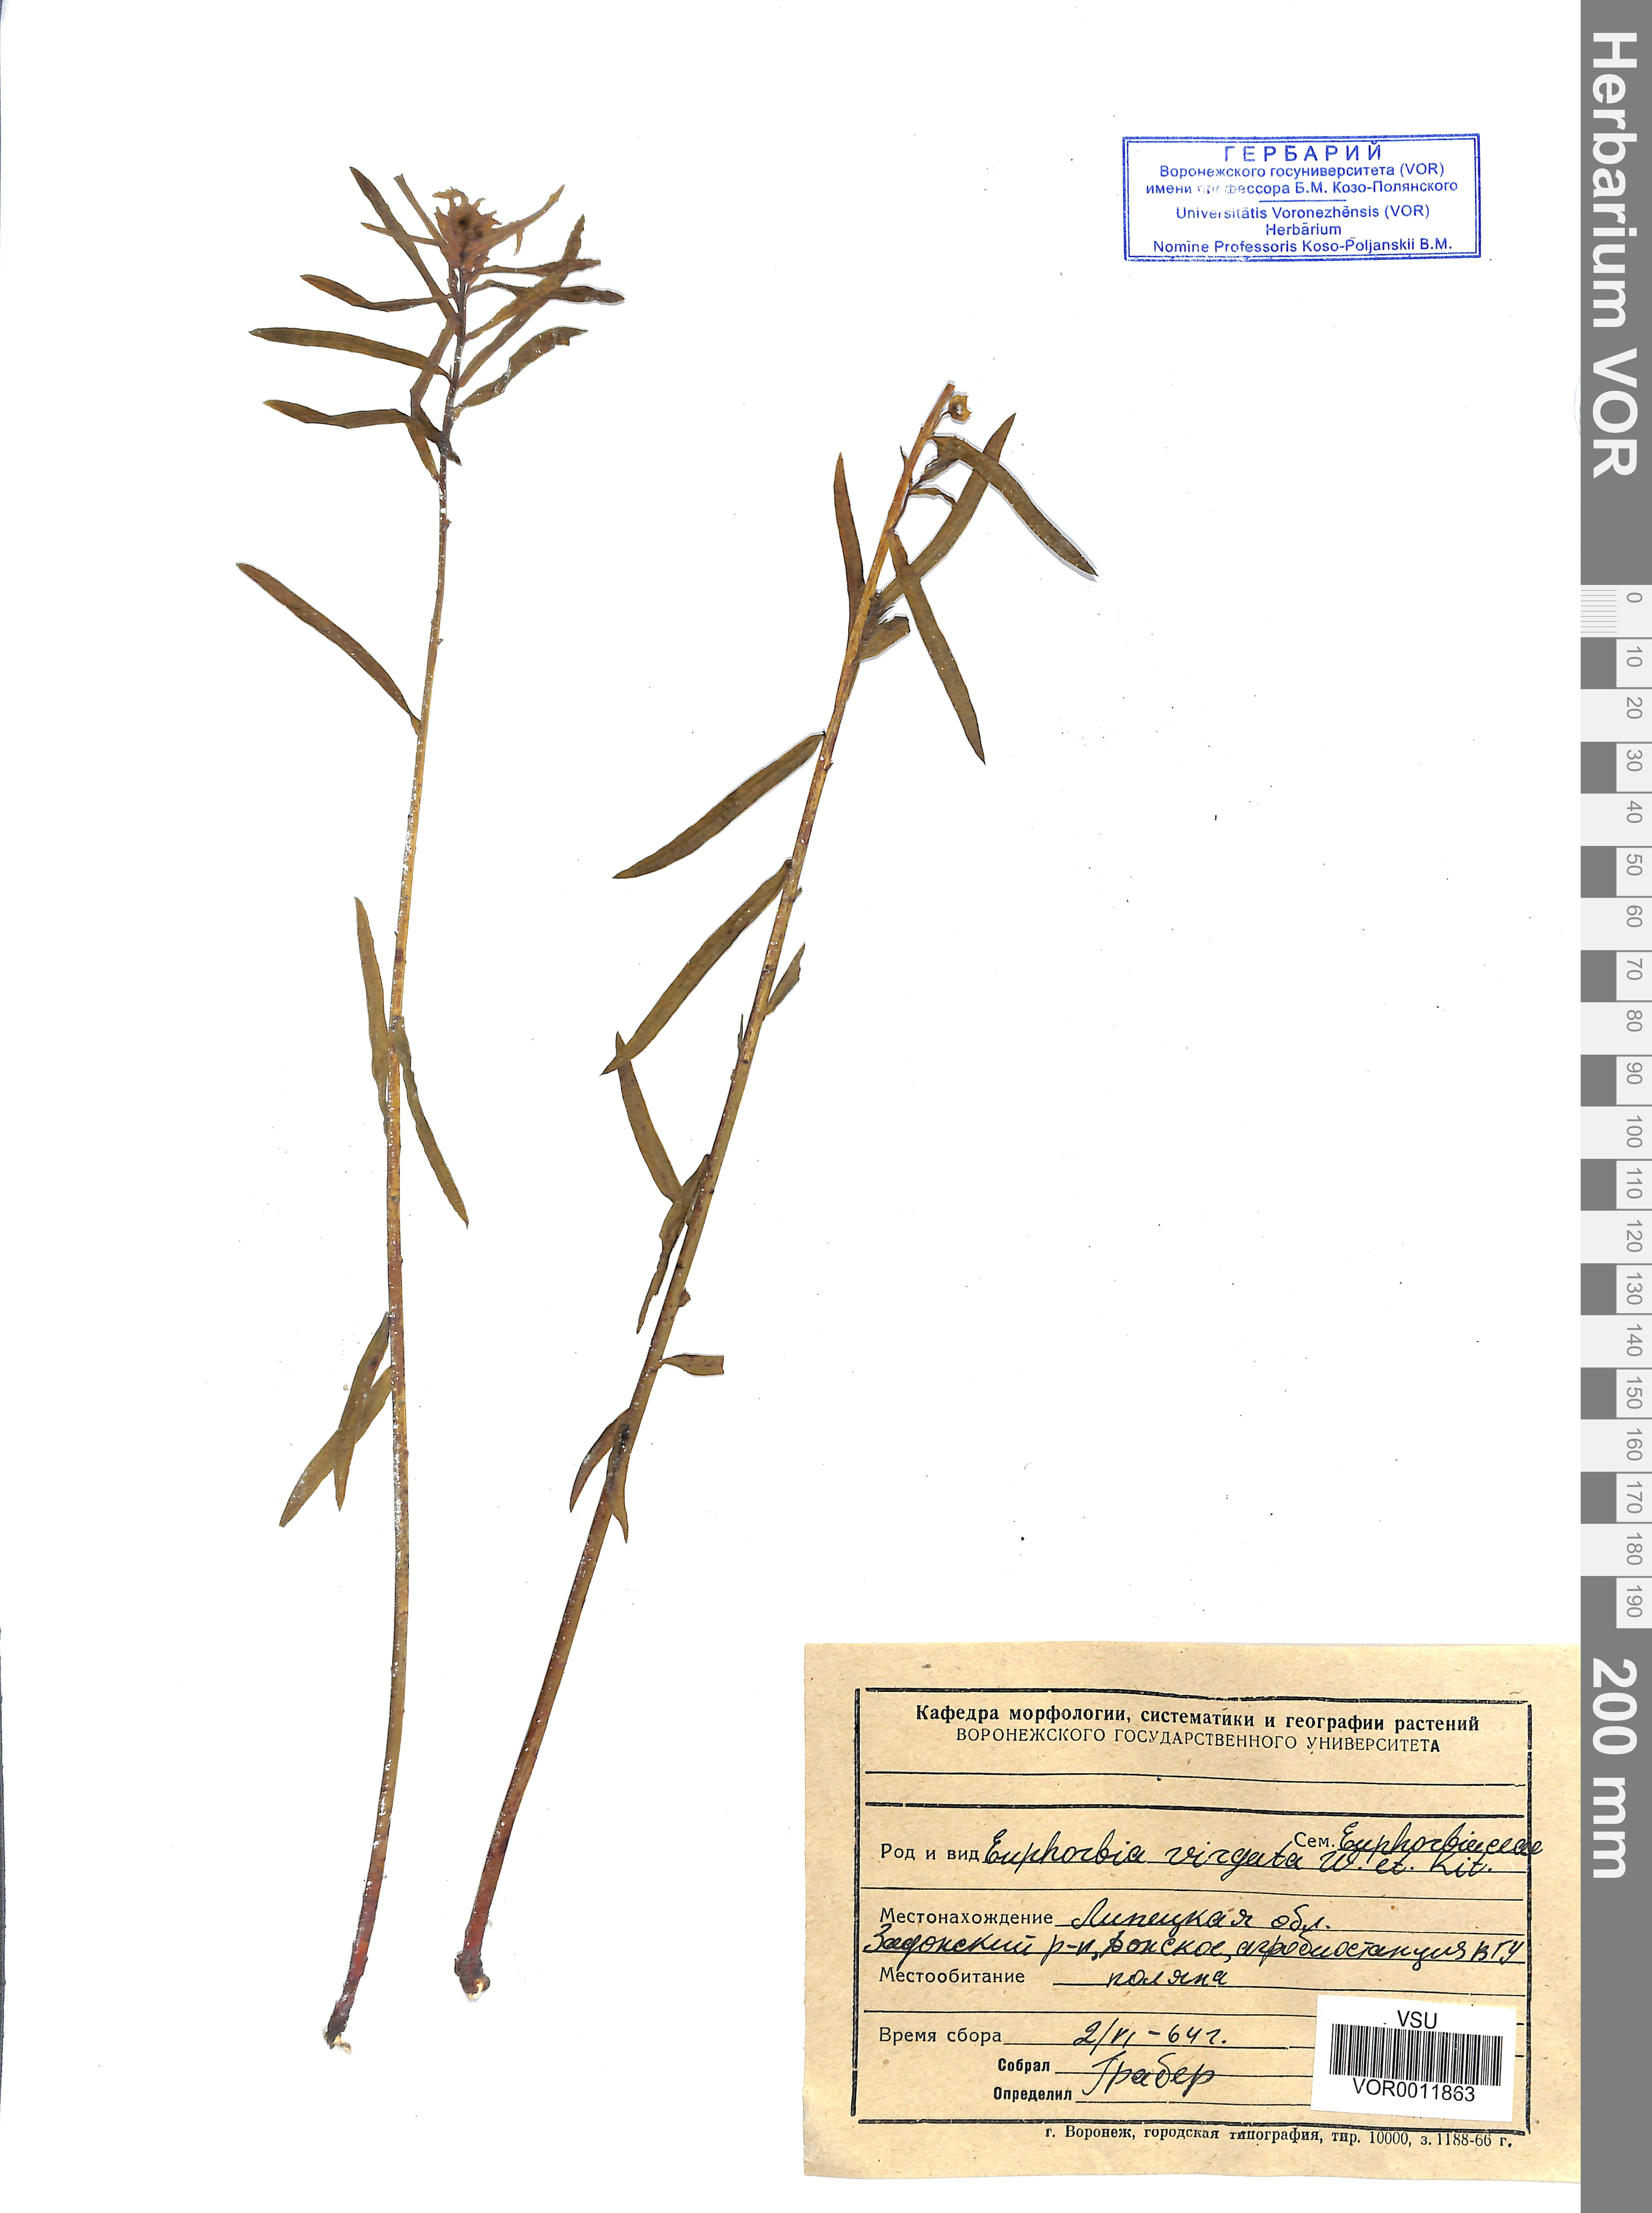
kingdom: Plantae
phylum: Tracheophyta
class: Magnoliopsida
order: Malpighiales
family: Euphorbiaceae
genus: Euphorbia
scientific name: Euphorbia virgata
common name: Leafy spurge
